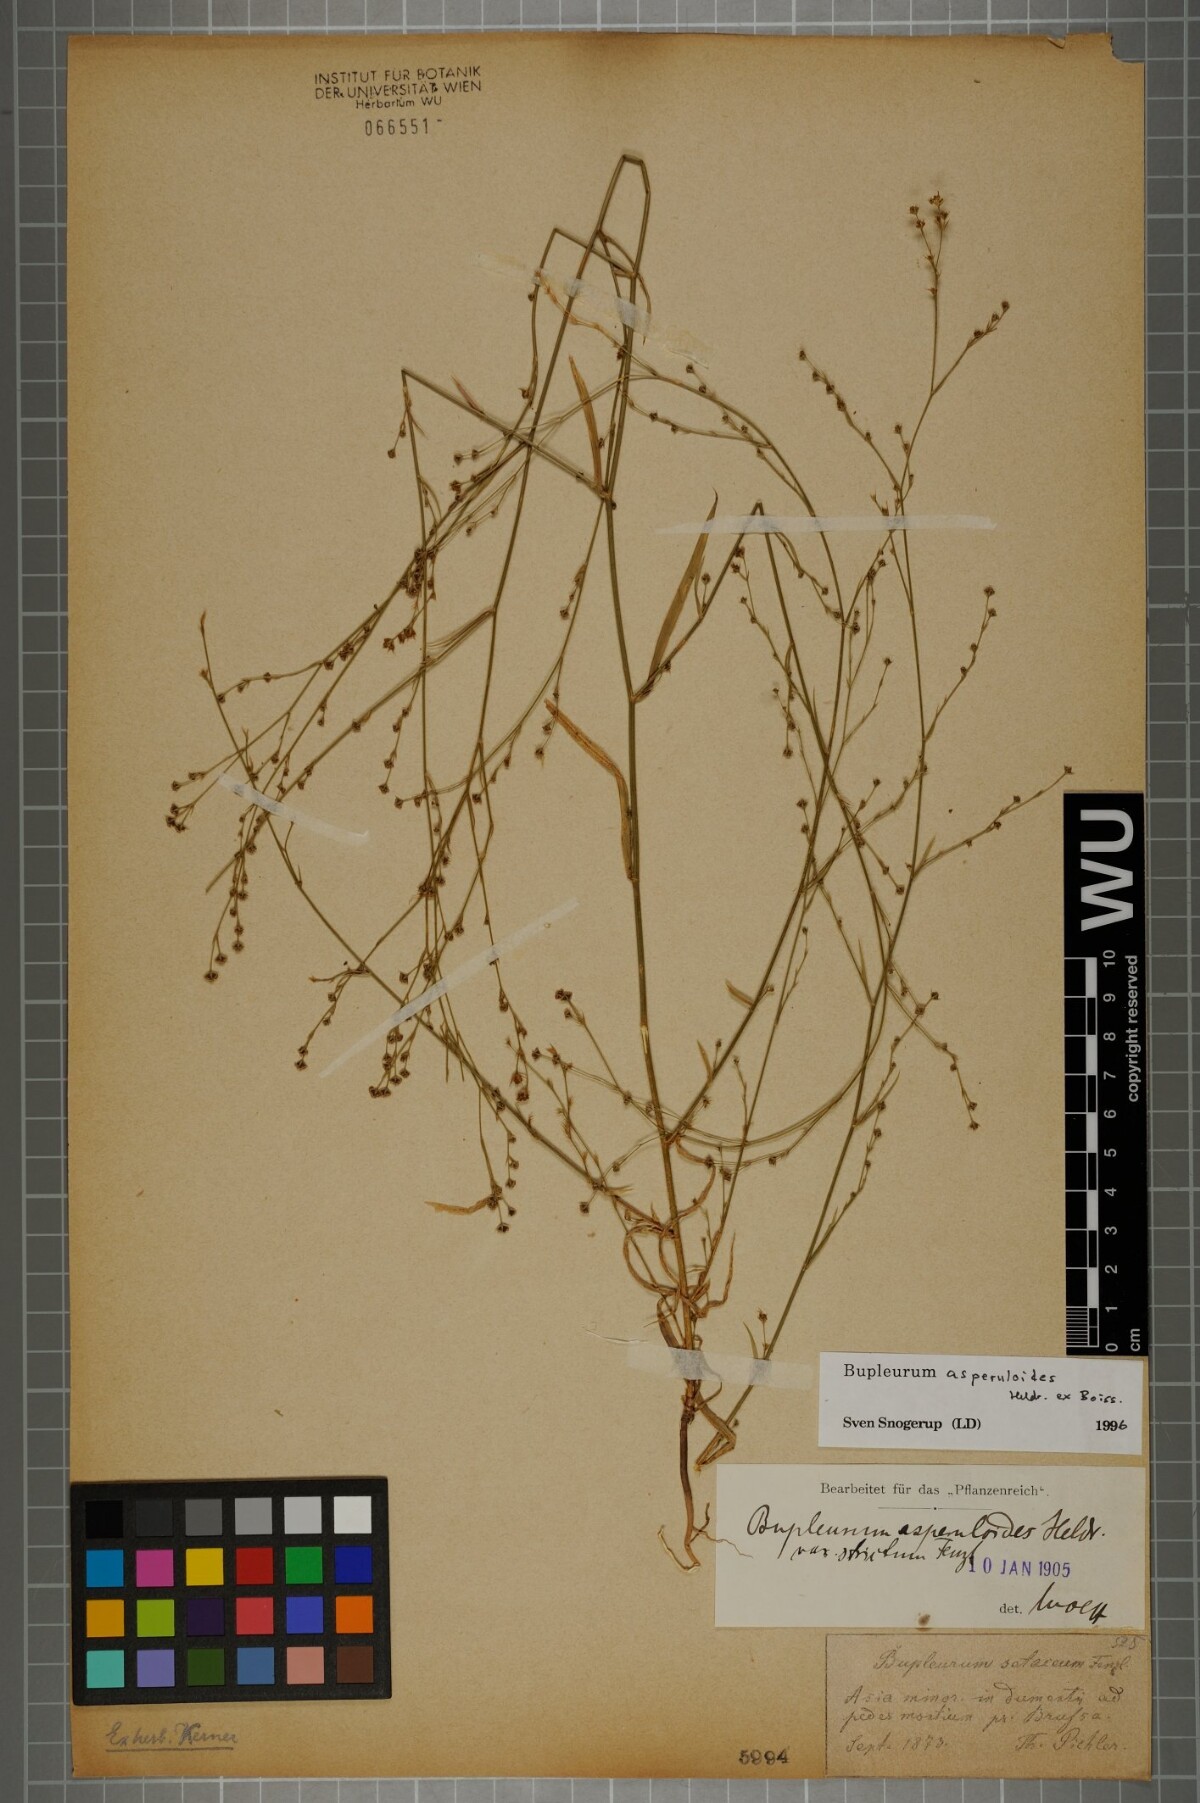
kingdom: Plantae
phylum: Tracheophyta
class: Magnoliopsida
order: Apiales
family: Apiaceae
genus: Bupleurum
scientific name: Bupleurum asperuloides
